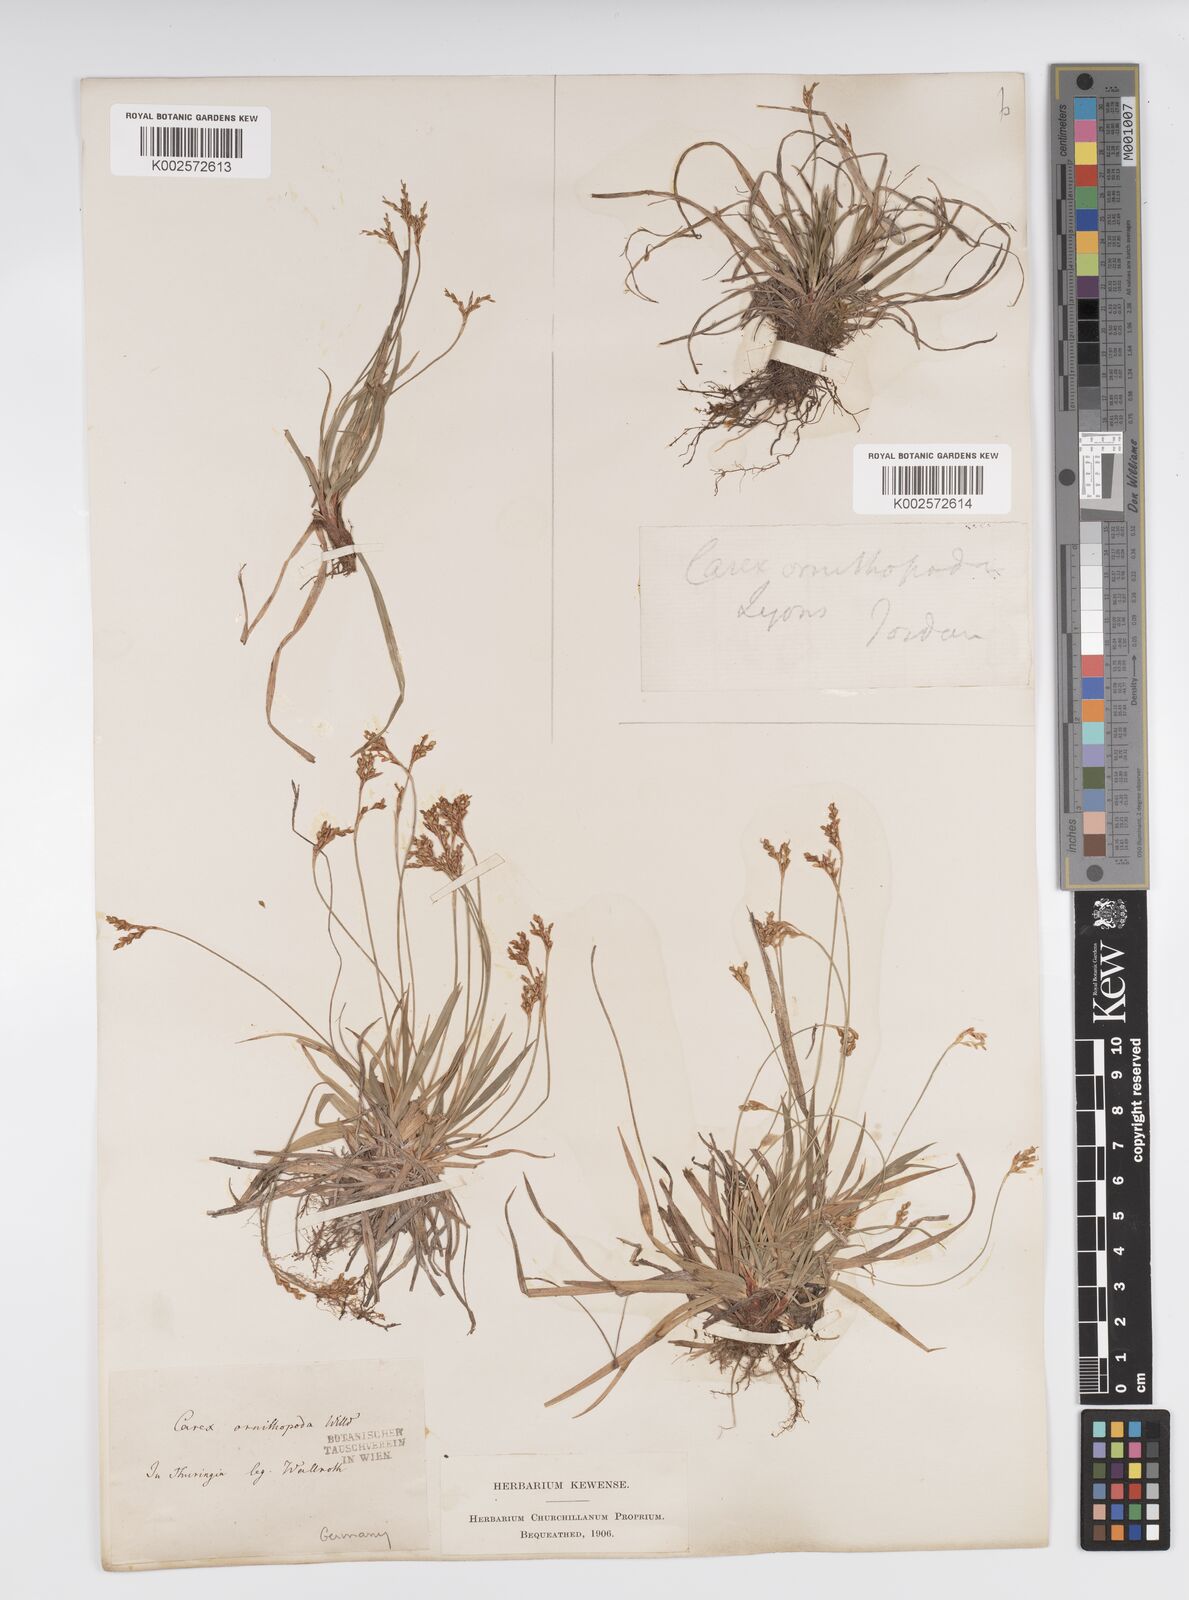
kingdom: Plantae
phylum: Tracheophyta
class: Liliopsida
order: Poales
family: Cyperaceae
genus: Carex
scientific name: Carex ornithopoda
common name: Bird's-foot sedge
